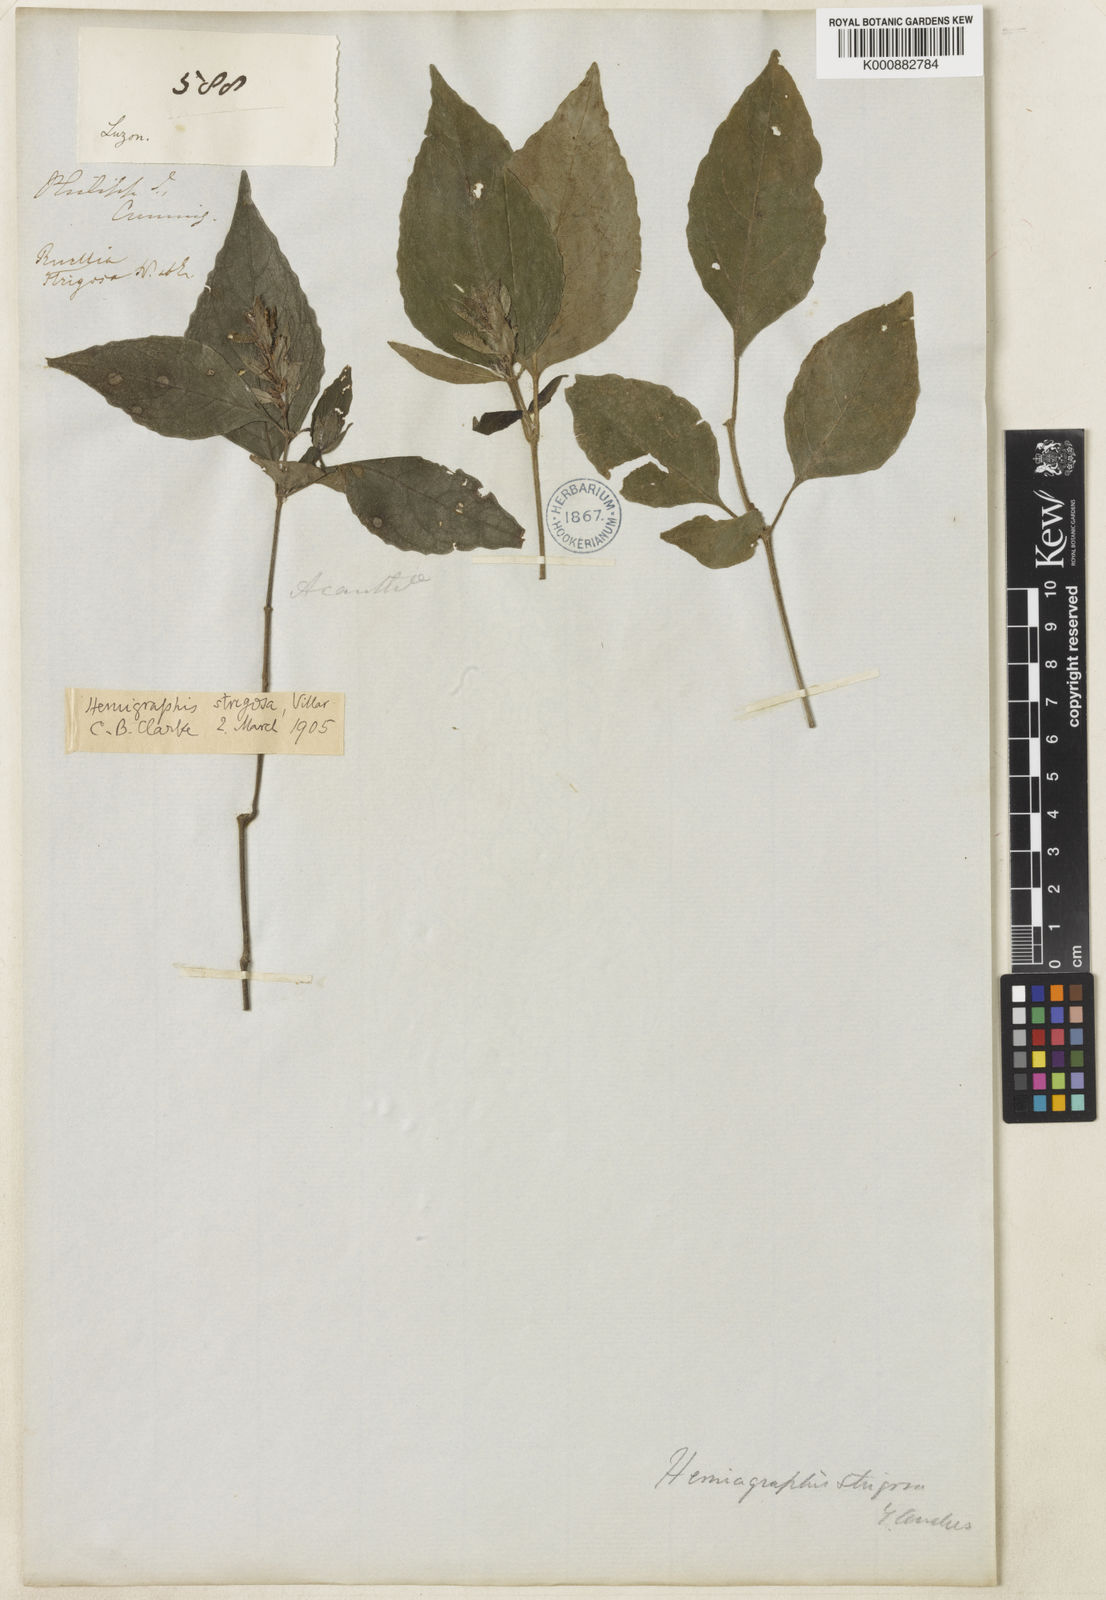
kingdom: Plantae
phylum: Tracheophyta
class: Magnoliopsida
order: Lamiales
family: Acanthaceae
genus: Strobilanthes
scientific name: Strobilanthes cumingiana
